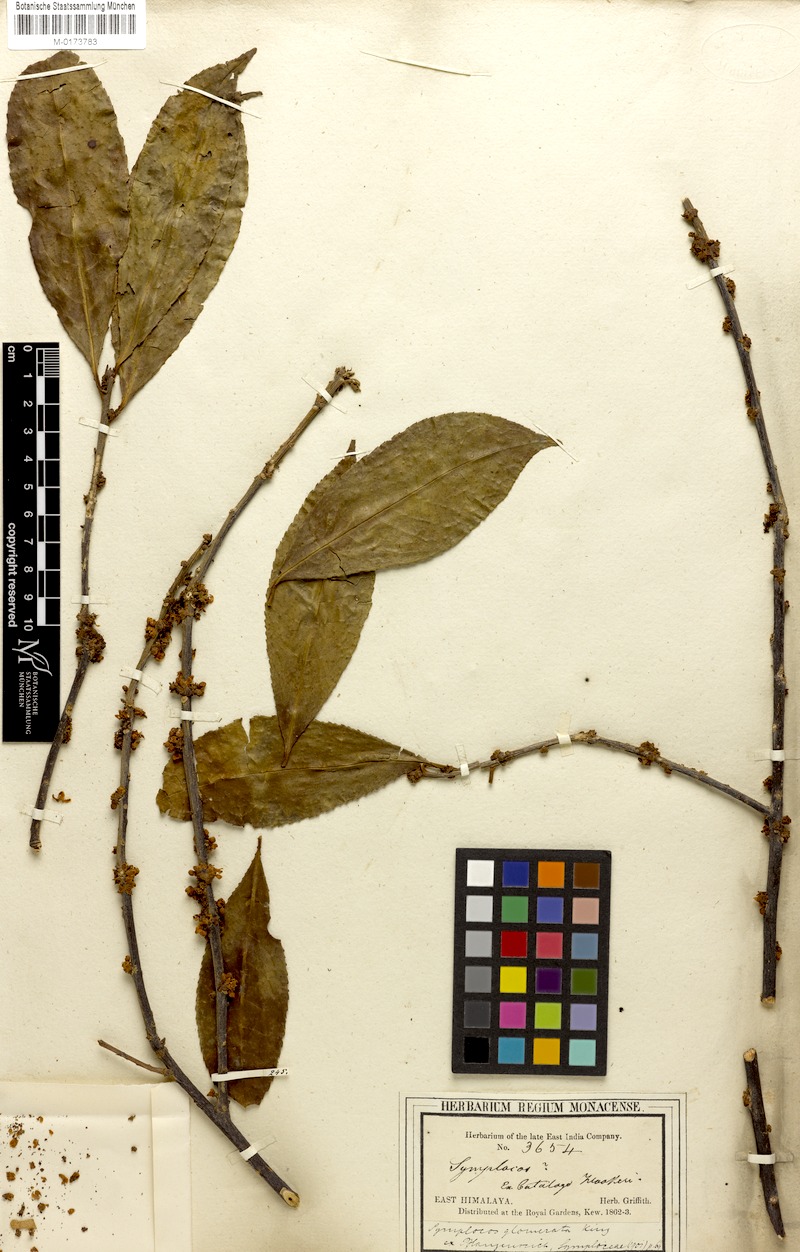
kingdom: Plantae
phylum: Tracheophyta
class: Magnoliopsida
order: Ericales
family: Symplocaceae
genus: Symplocos
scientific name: Symplocos glomerata
